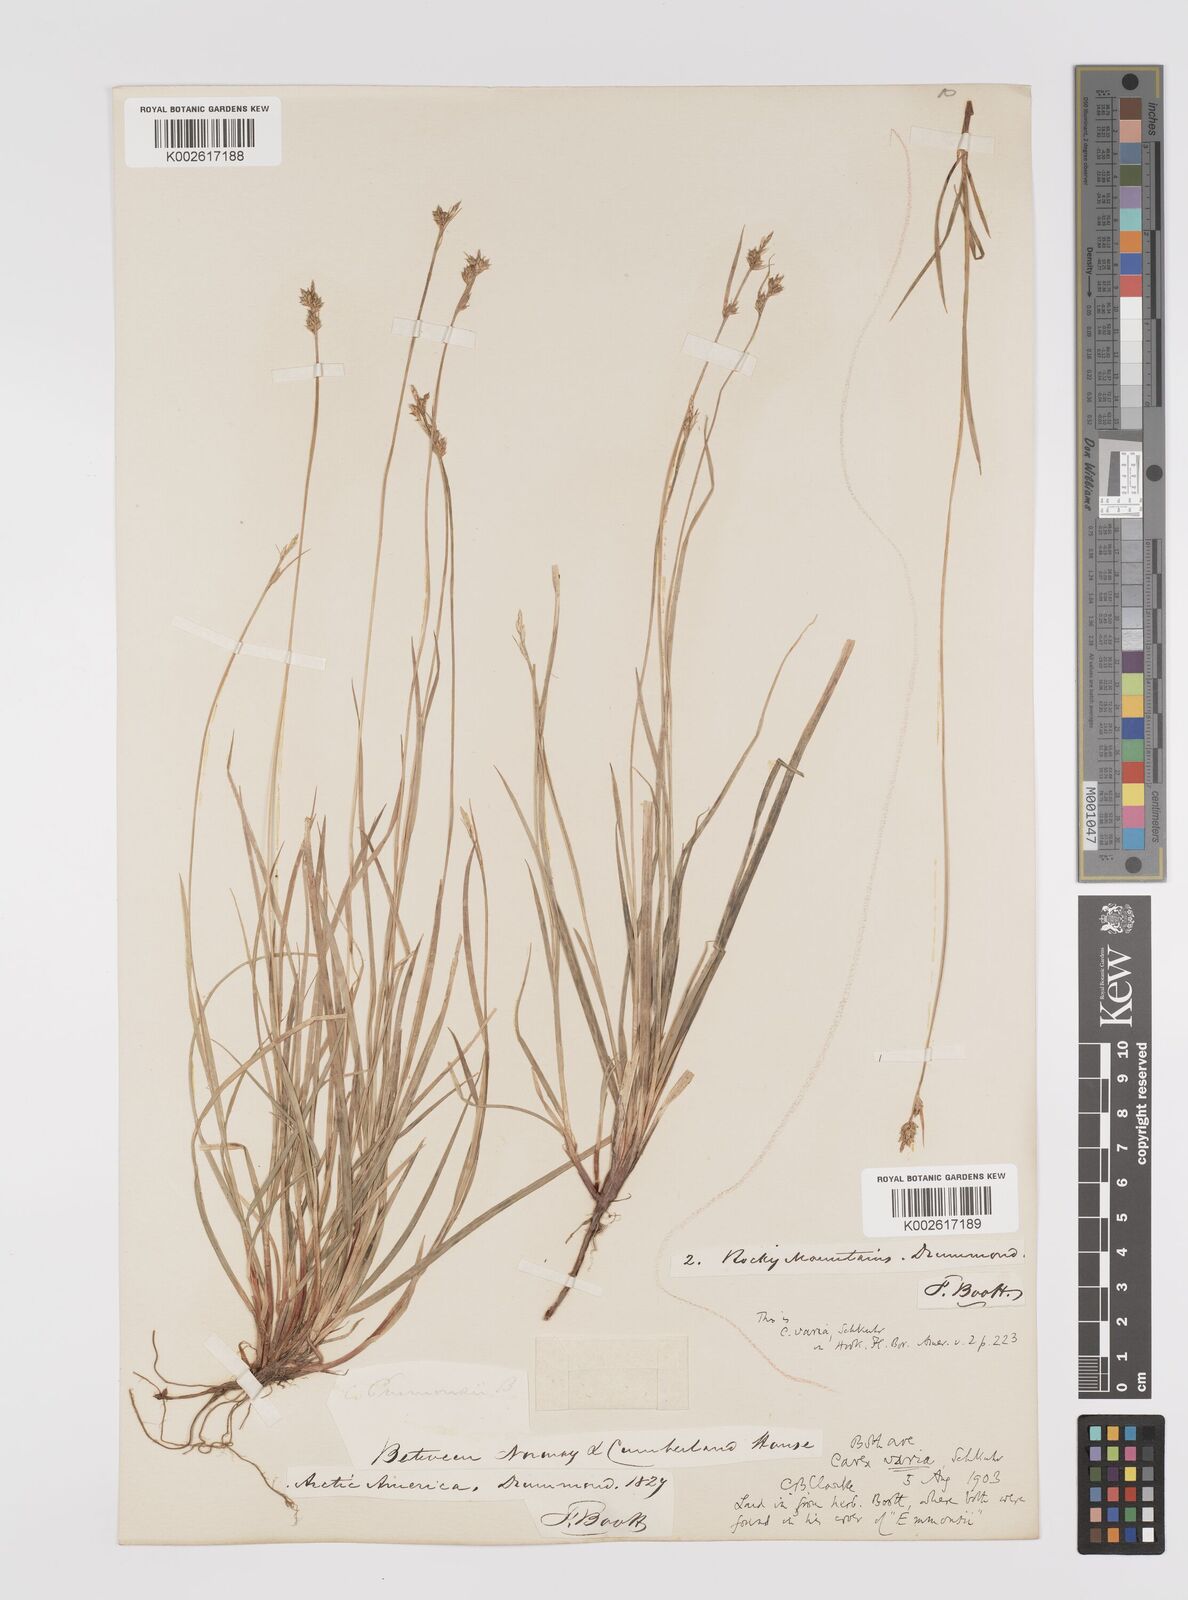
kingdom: Plantae
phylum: Tracheophyta
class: Liliopsida
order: Poales
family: Cyperaceae
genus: Carex
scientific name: Carex albicans
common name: Bellow-beaked sedge
